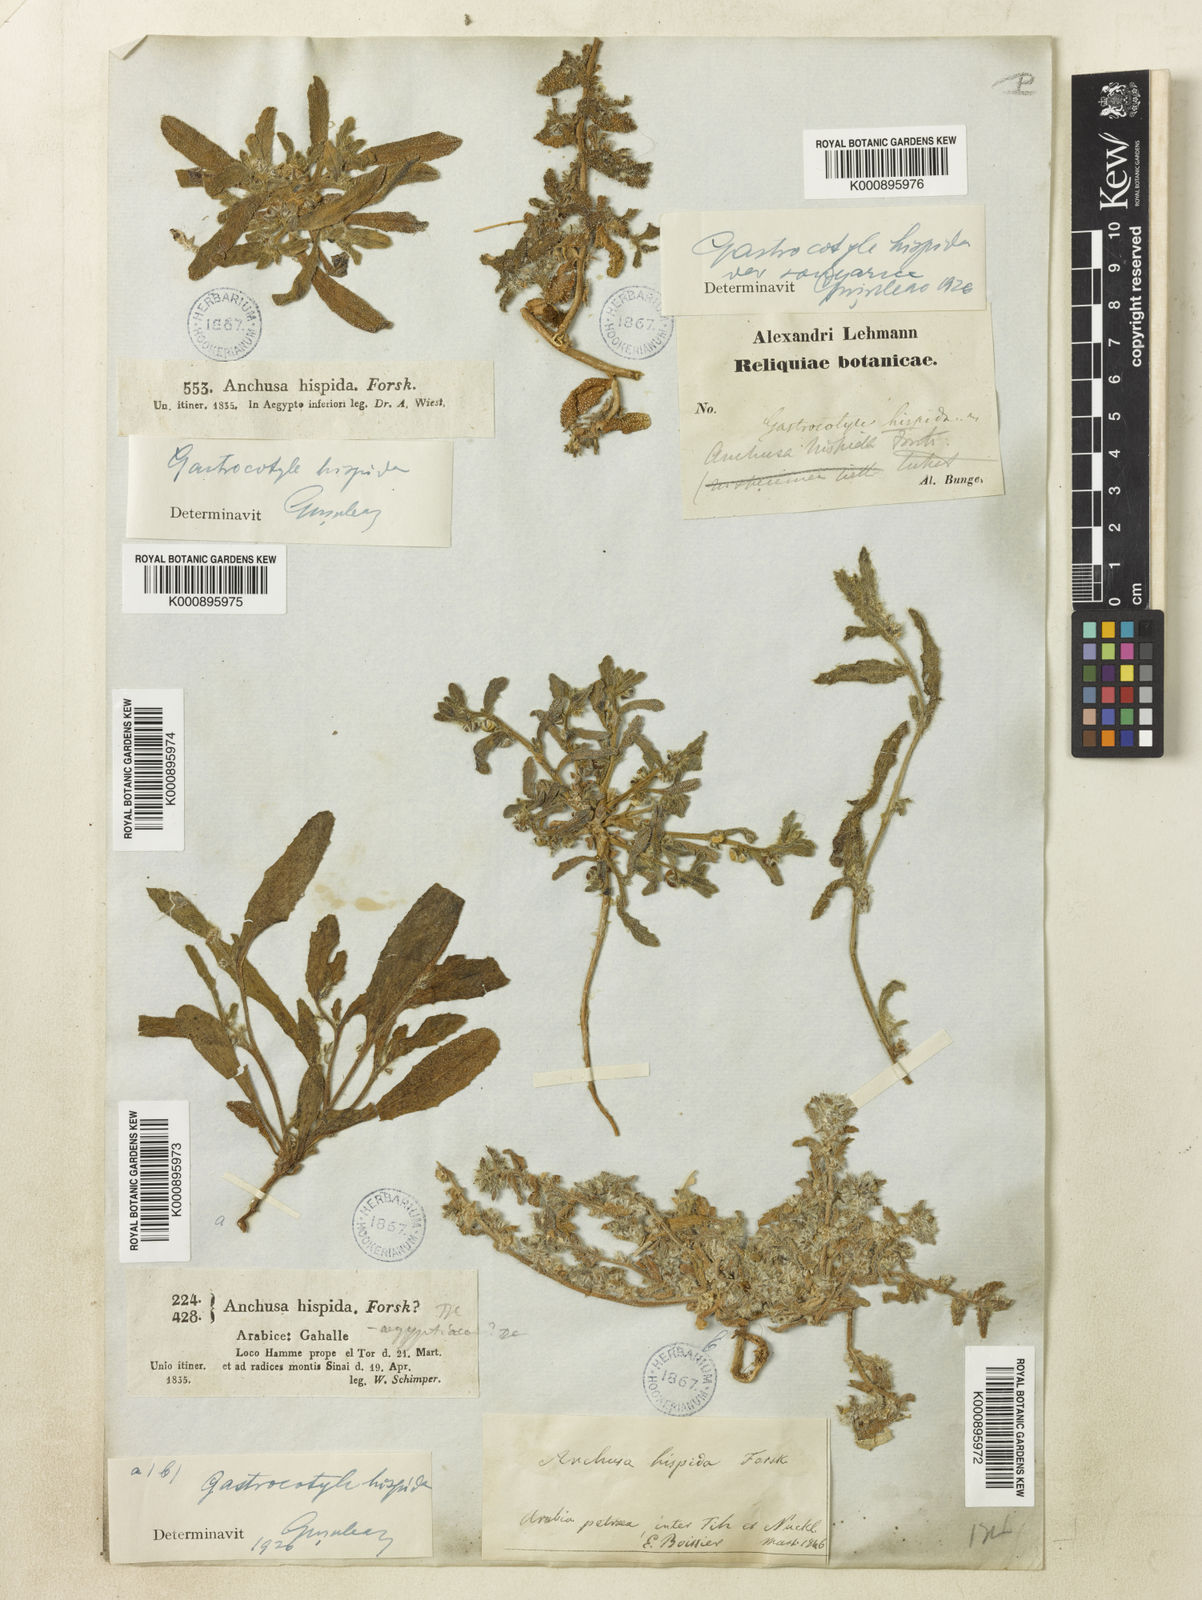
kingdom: Plantae
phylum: Tracheophyta
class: Magnoliopsida
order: Boraginales
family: Boraginaceae
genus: Phyllocara
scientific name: Phyllocara
